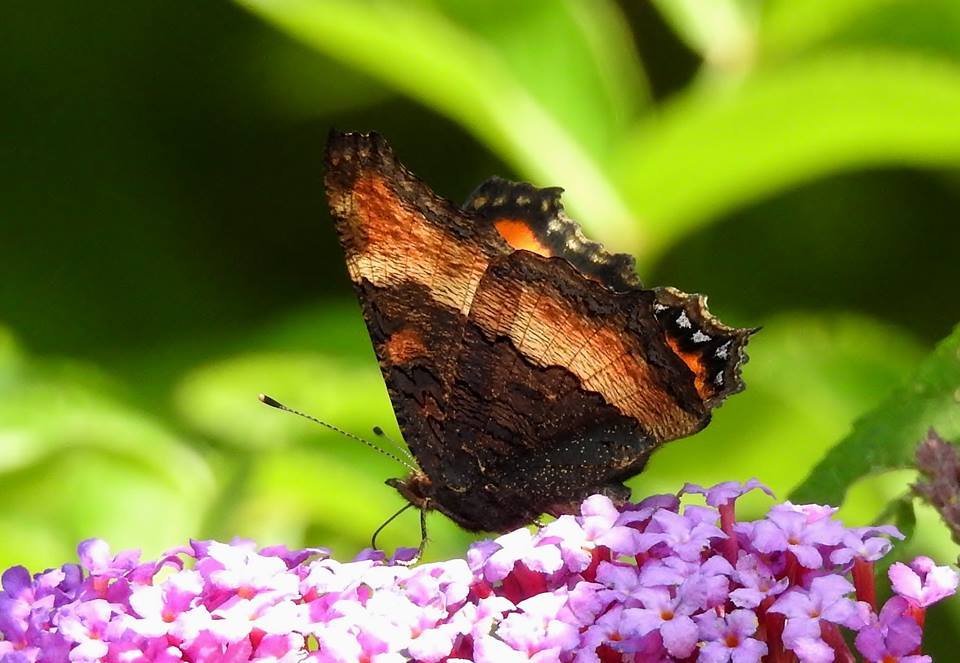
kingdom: Animalia
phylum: Arthropoda
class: Insecta
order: Lepidoptera
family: Nymphalidae
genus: Aglais
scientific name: Aglais milberti
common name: Milbert's Tortoiseshell
